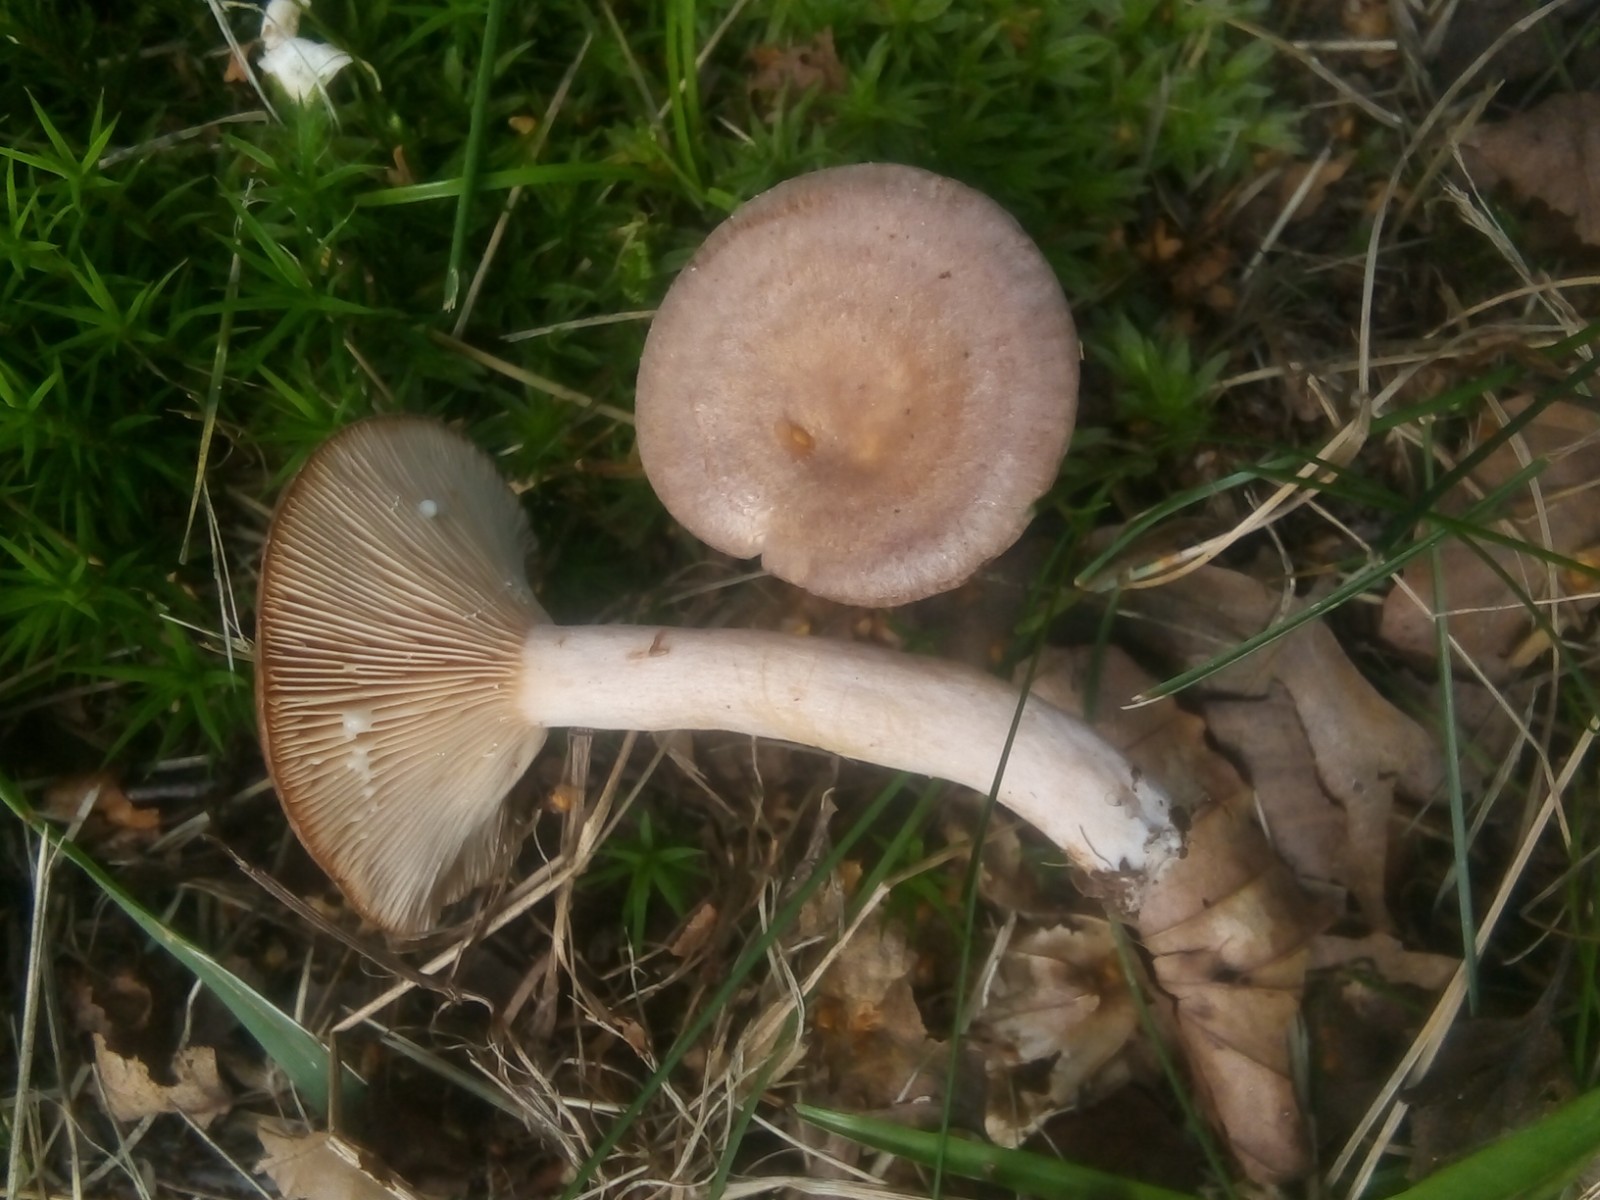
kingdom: Fungi
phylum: Basidiomycota
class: Agaricomycetes
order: Russulales
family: Russulaceae
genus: Lactarius
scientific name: Lactarius glyciosmus
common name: kokos-mælkehat
